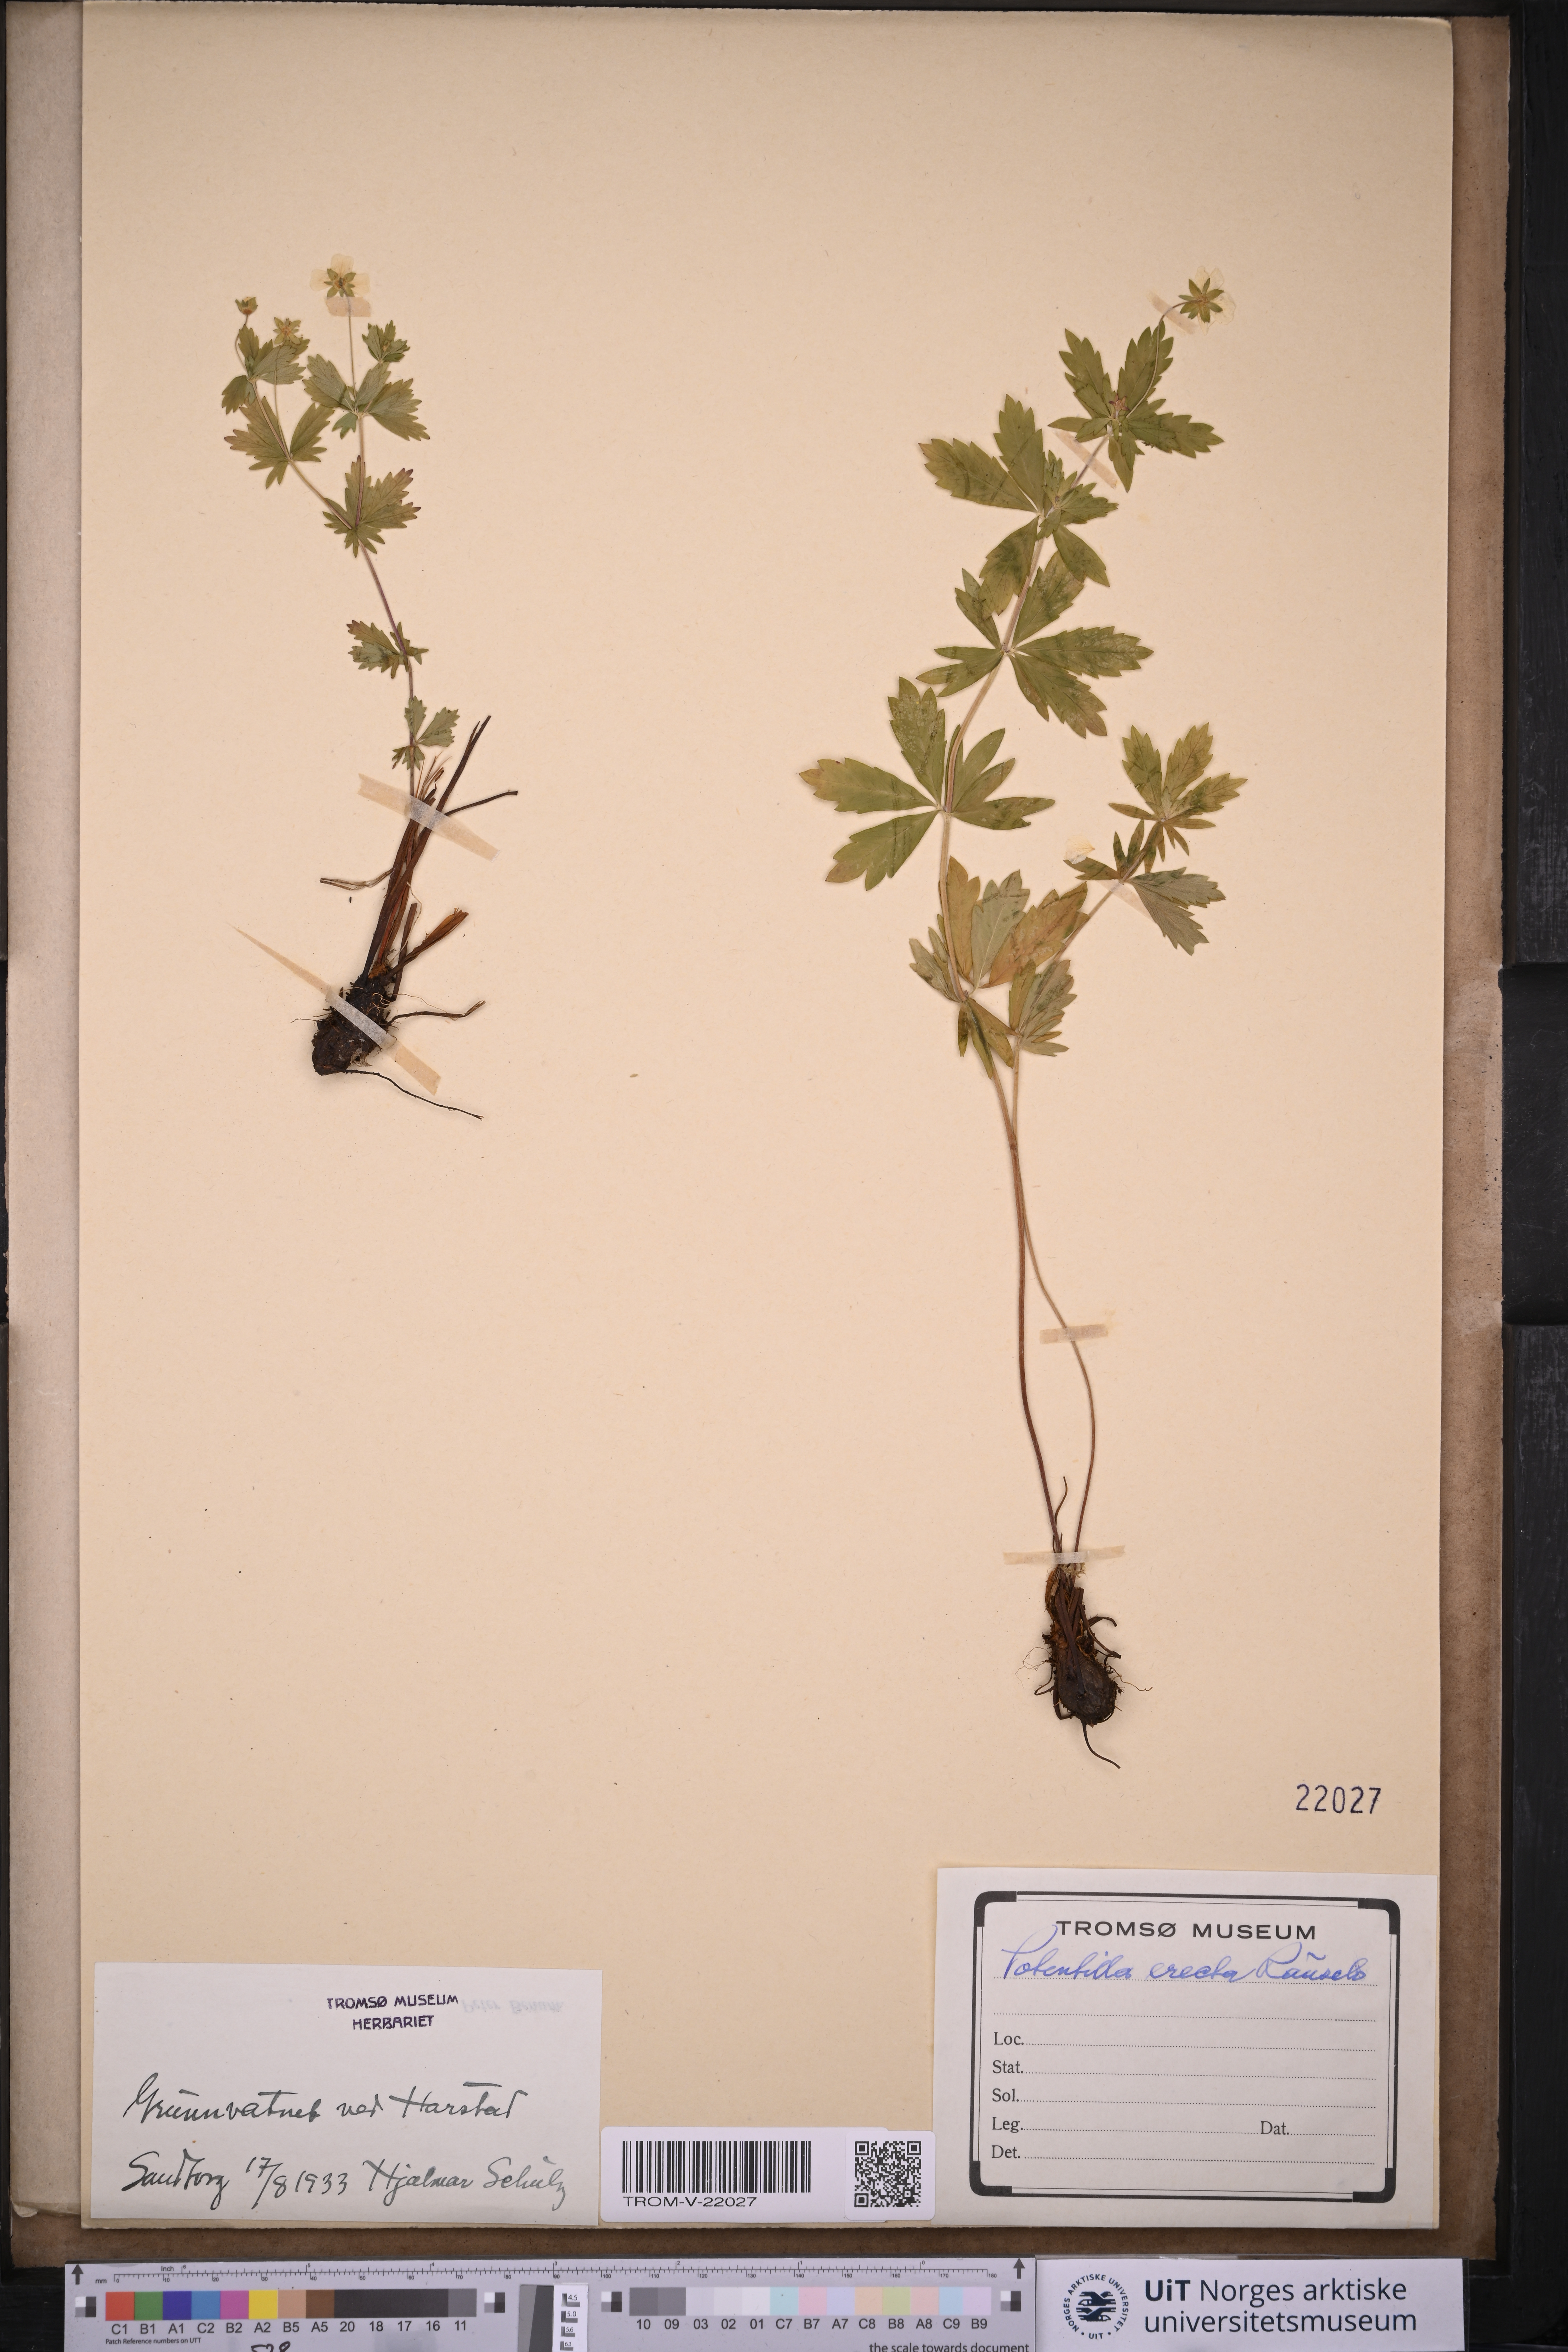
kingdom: Plantae
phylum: Tracheophyta
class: Magnoliopsida
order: Rosales
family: Rosaceae
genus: Potentilla
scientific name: Potentilla erecta
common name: Tormentil
